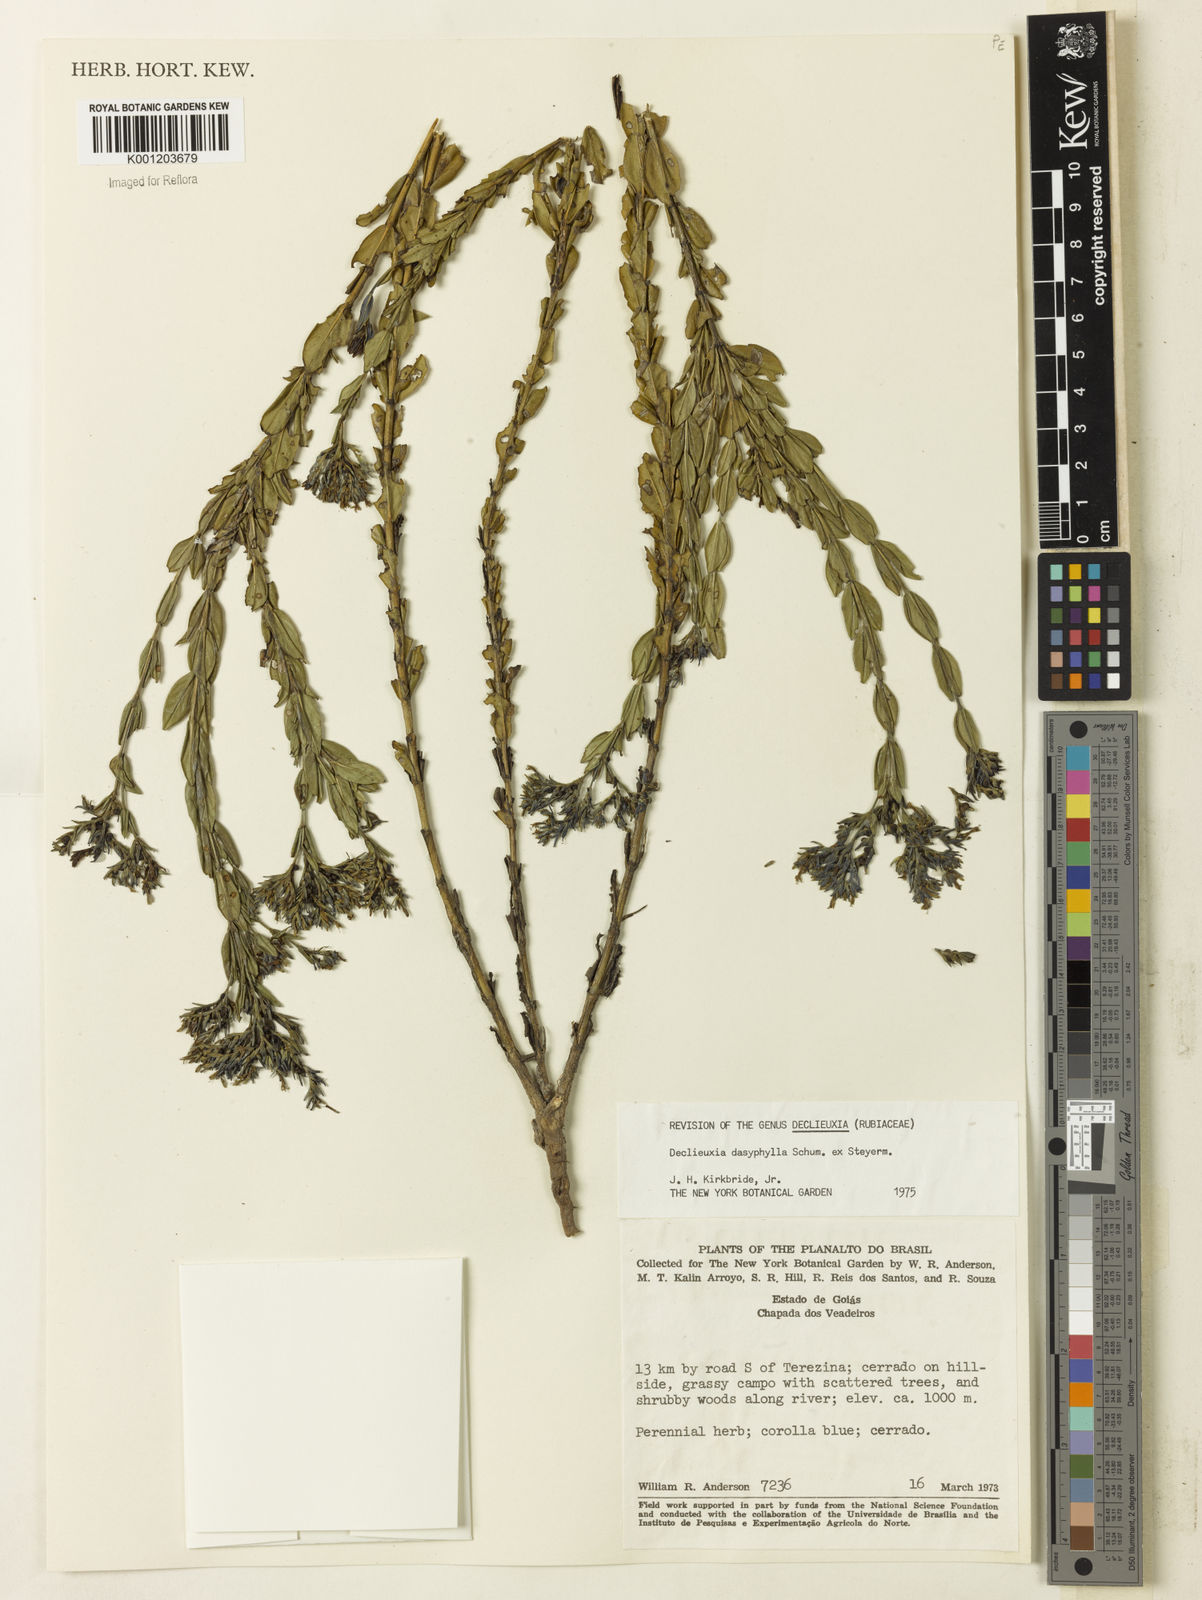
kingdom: Plantae
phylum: Tracheophyta
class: Magnoliopsida
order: Gentianales
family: Rubiaceae
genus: Declieuxia
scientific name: Declieuxia dasyphylla
